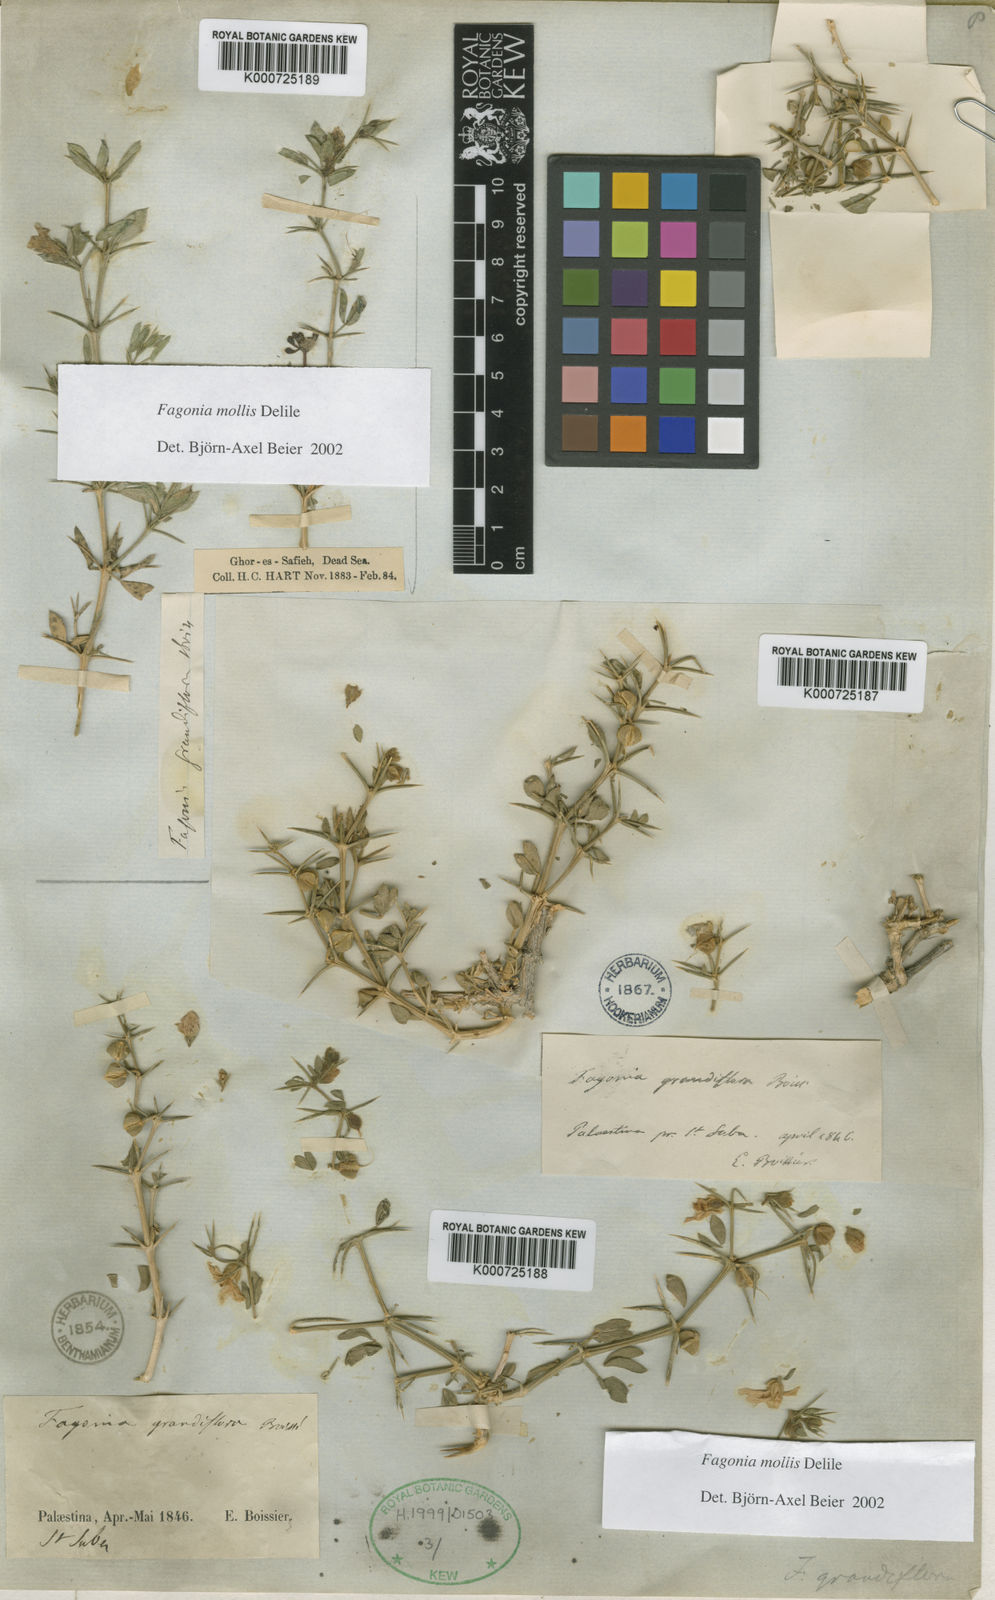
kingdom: Plantae
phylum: Tracheophyta
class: Magnoliopsida
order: Zygophyllales
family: Zygophyllaceae
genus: Fagonia
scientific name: Fagonia mollis
